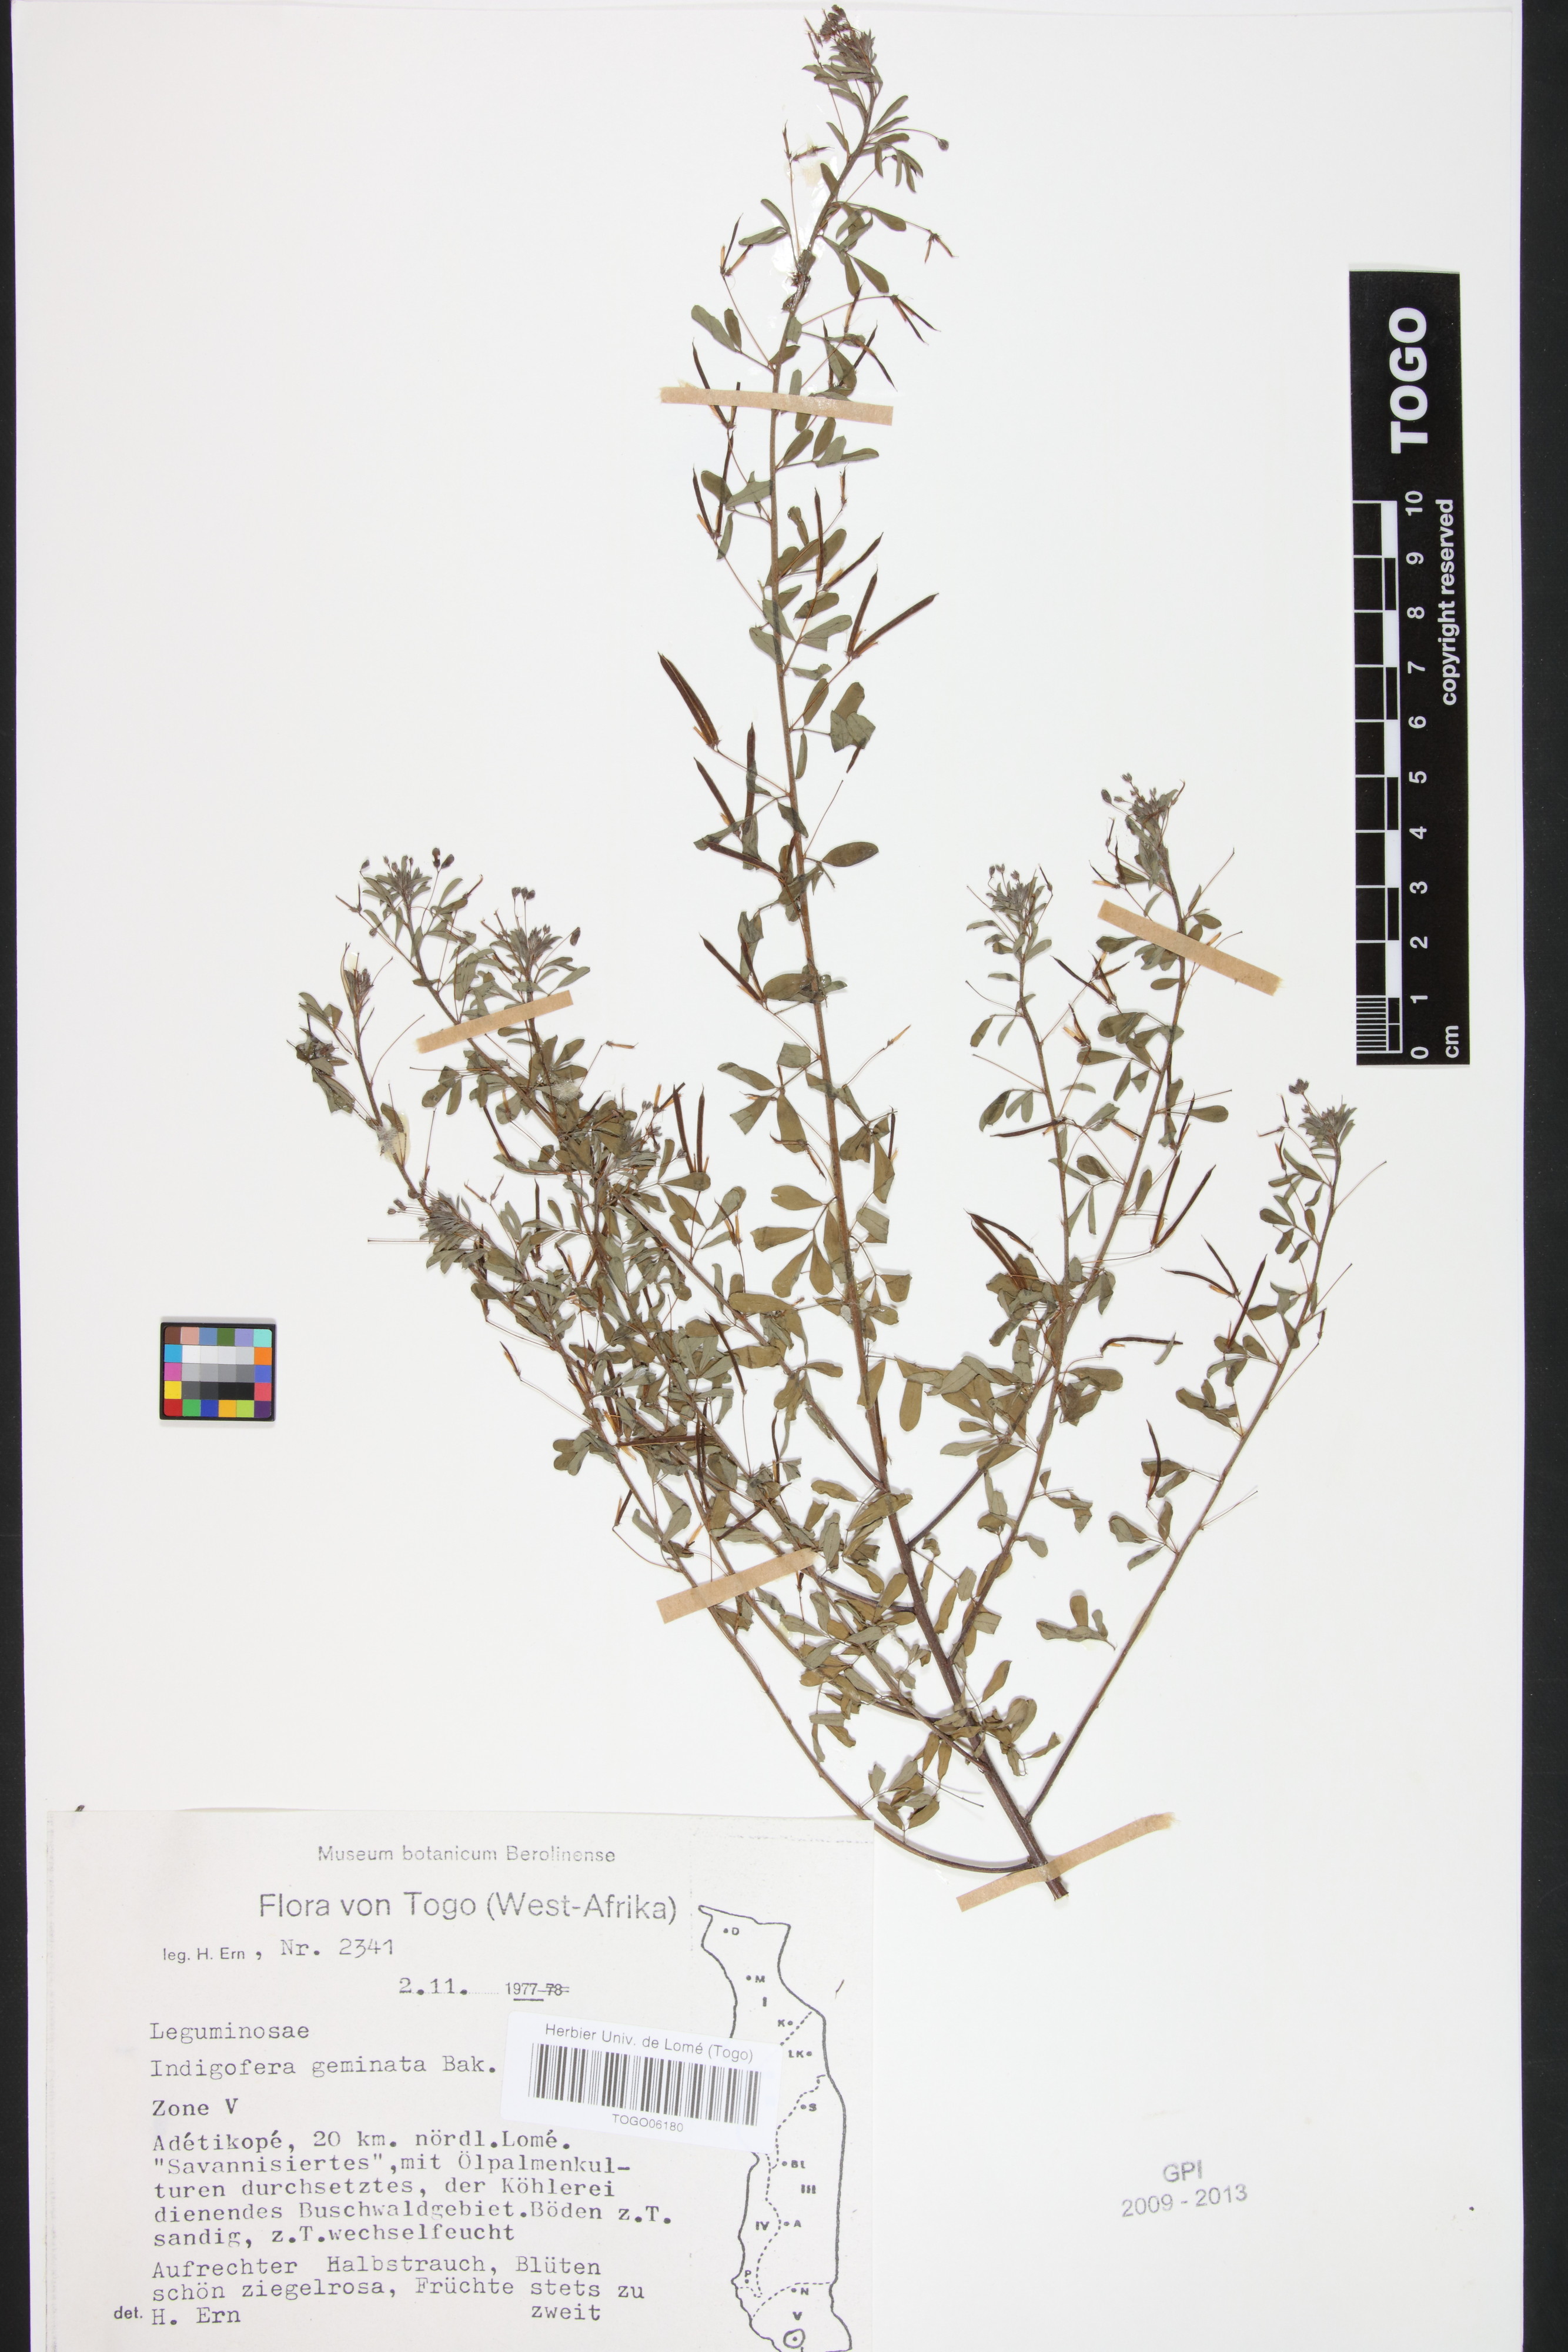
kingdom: Plantae
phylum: Tracheophyta
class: Magnoliopsida
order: Fabales
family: Fabaceae
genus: Indigofera
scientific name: Indigofera geminata
